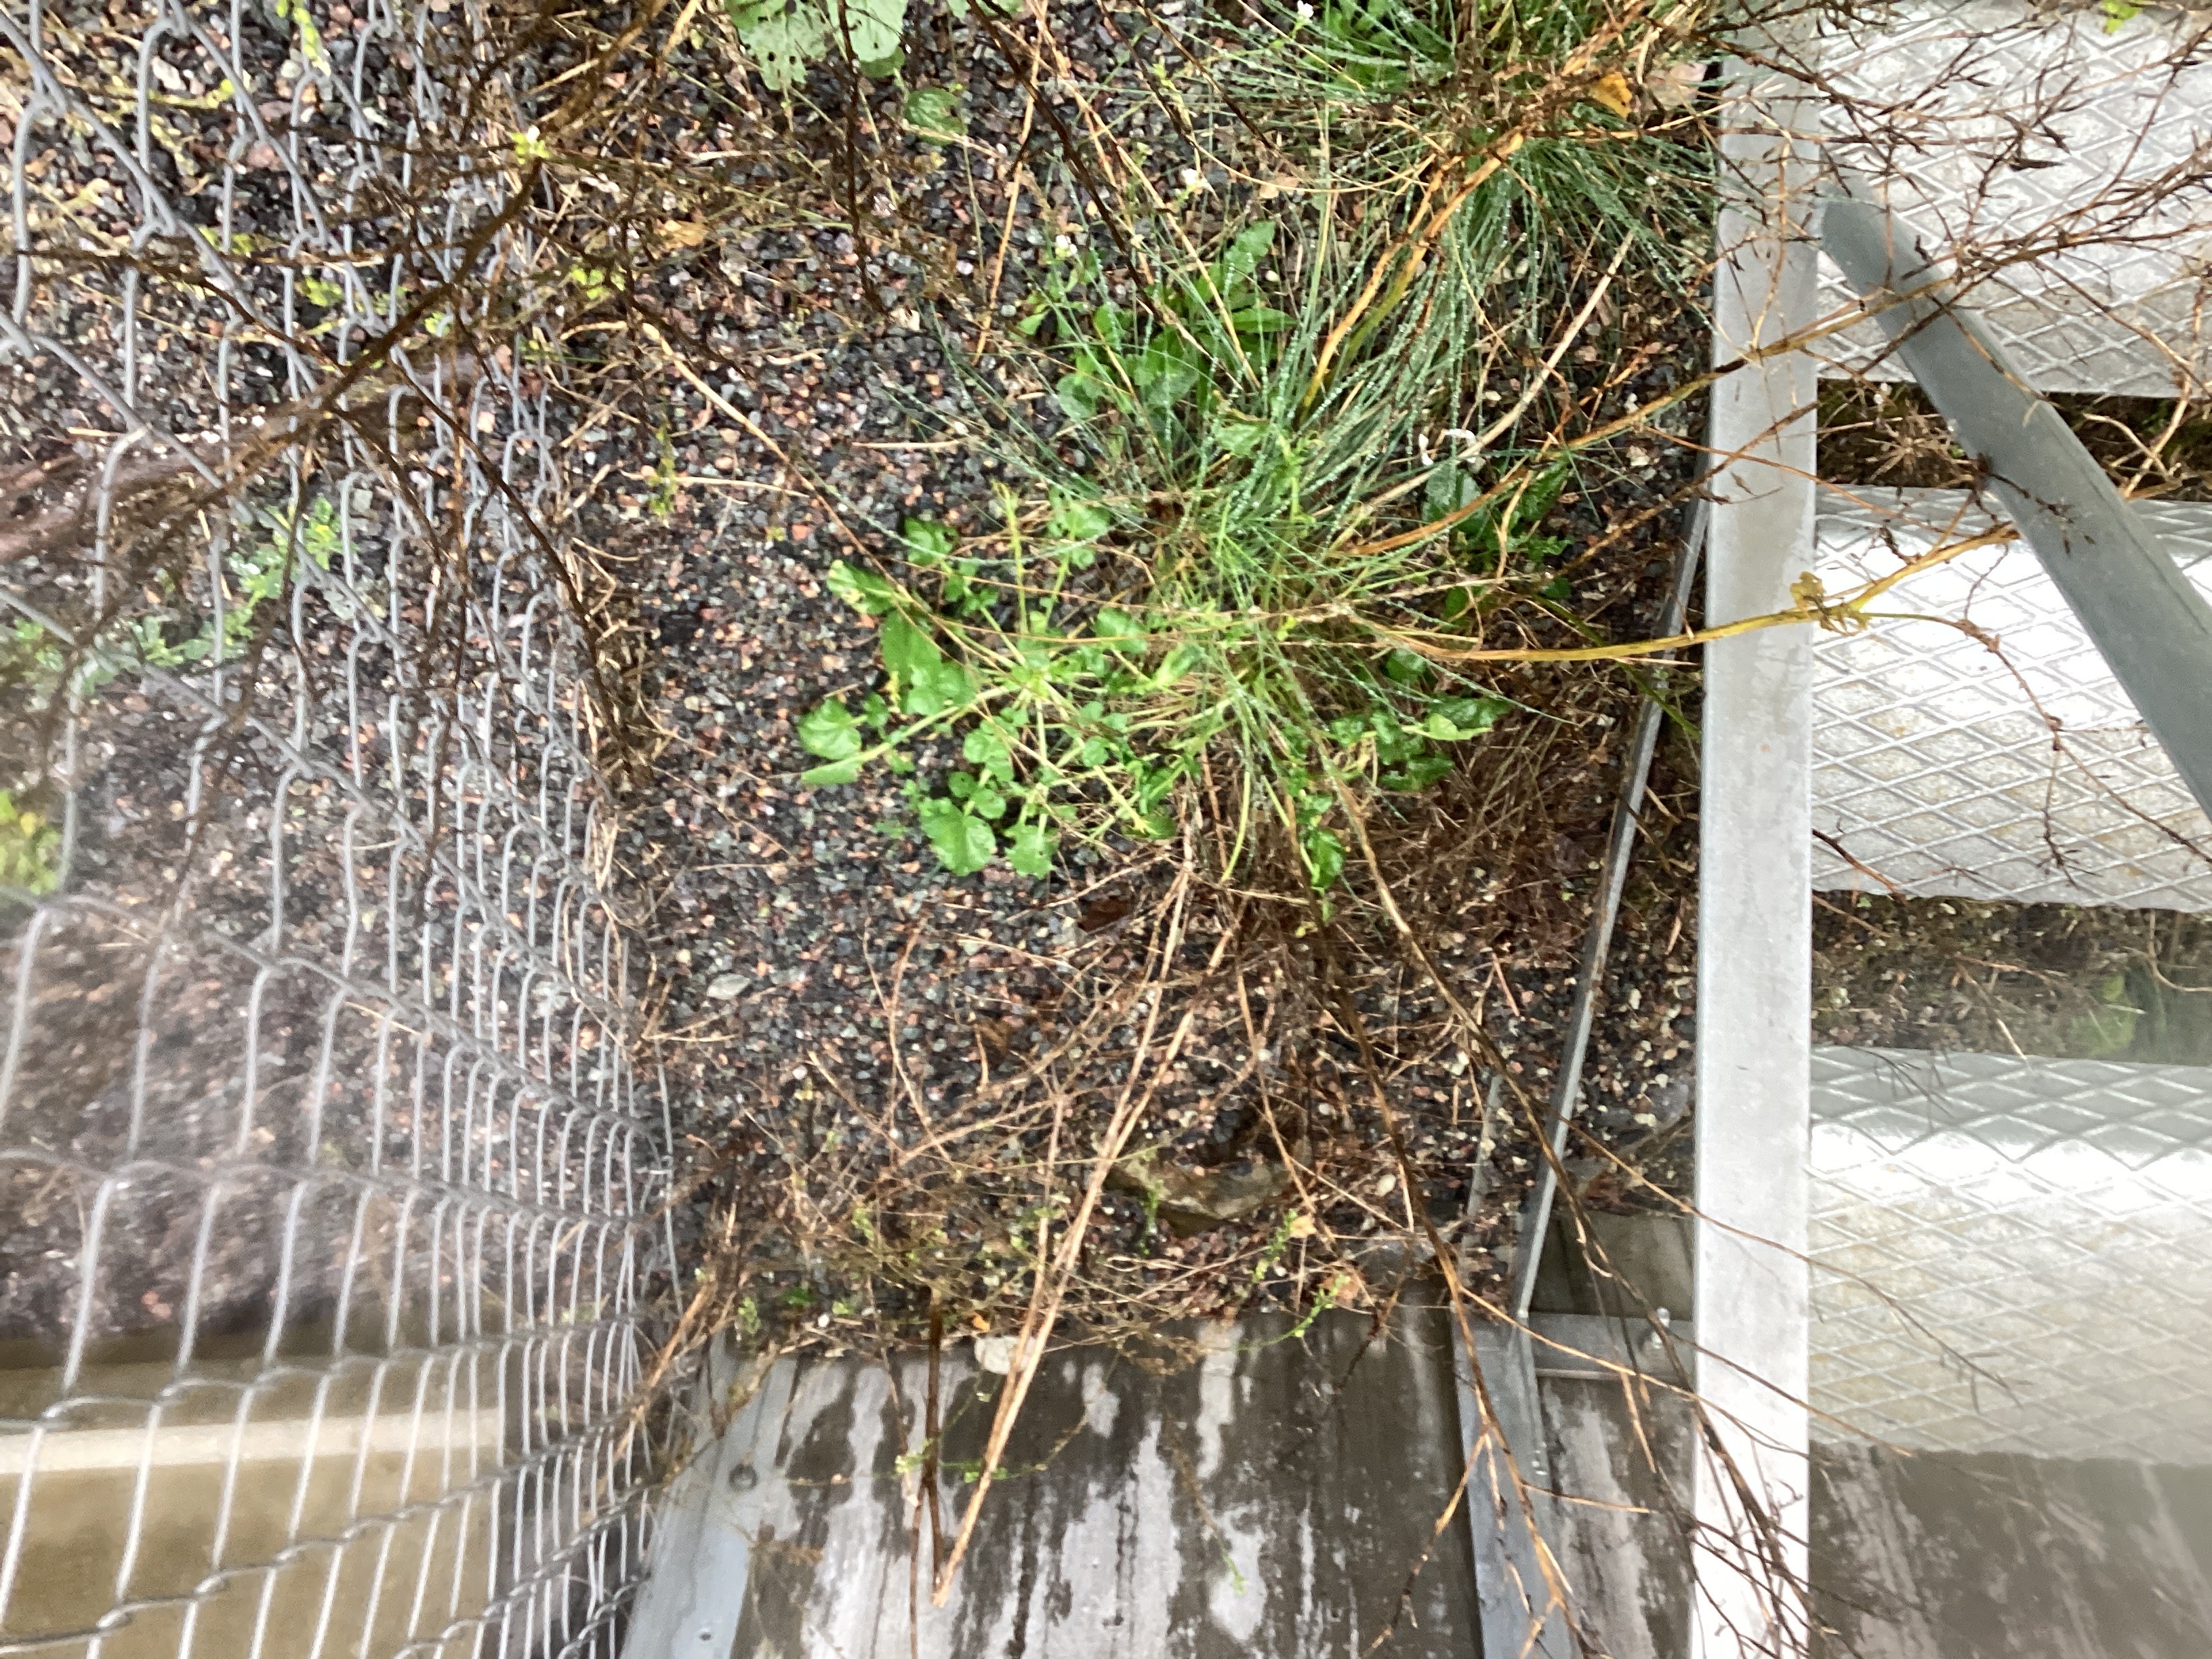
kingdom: Plantae
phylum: Tracheophyta
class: Magnoliopsida
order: Brassicales
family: Brassicaceae
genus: Barbarea
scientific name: Barbarea vulgaris
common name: vinterkarse
